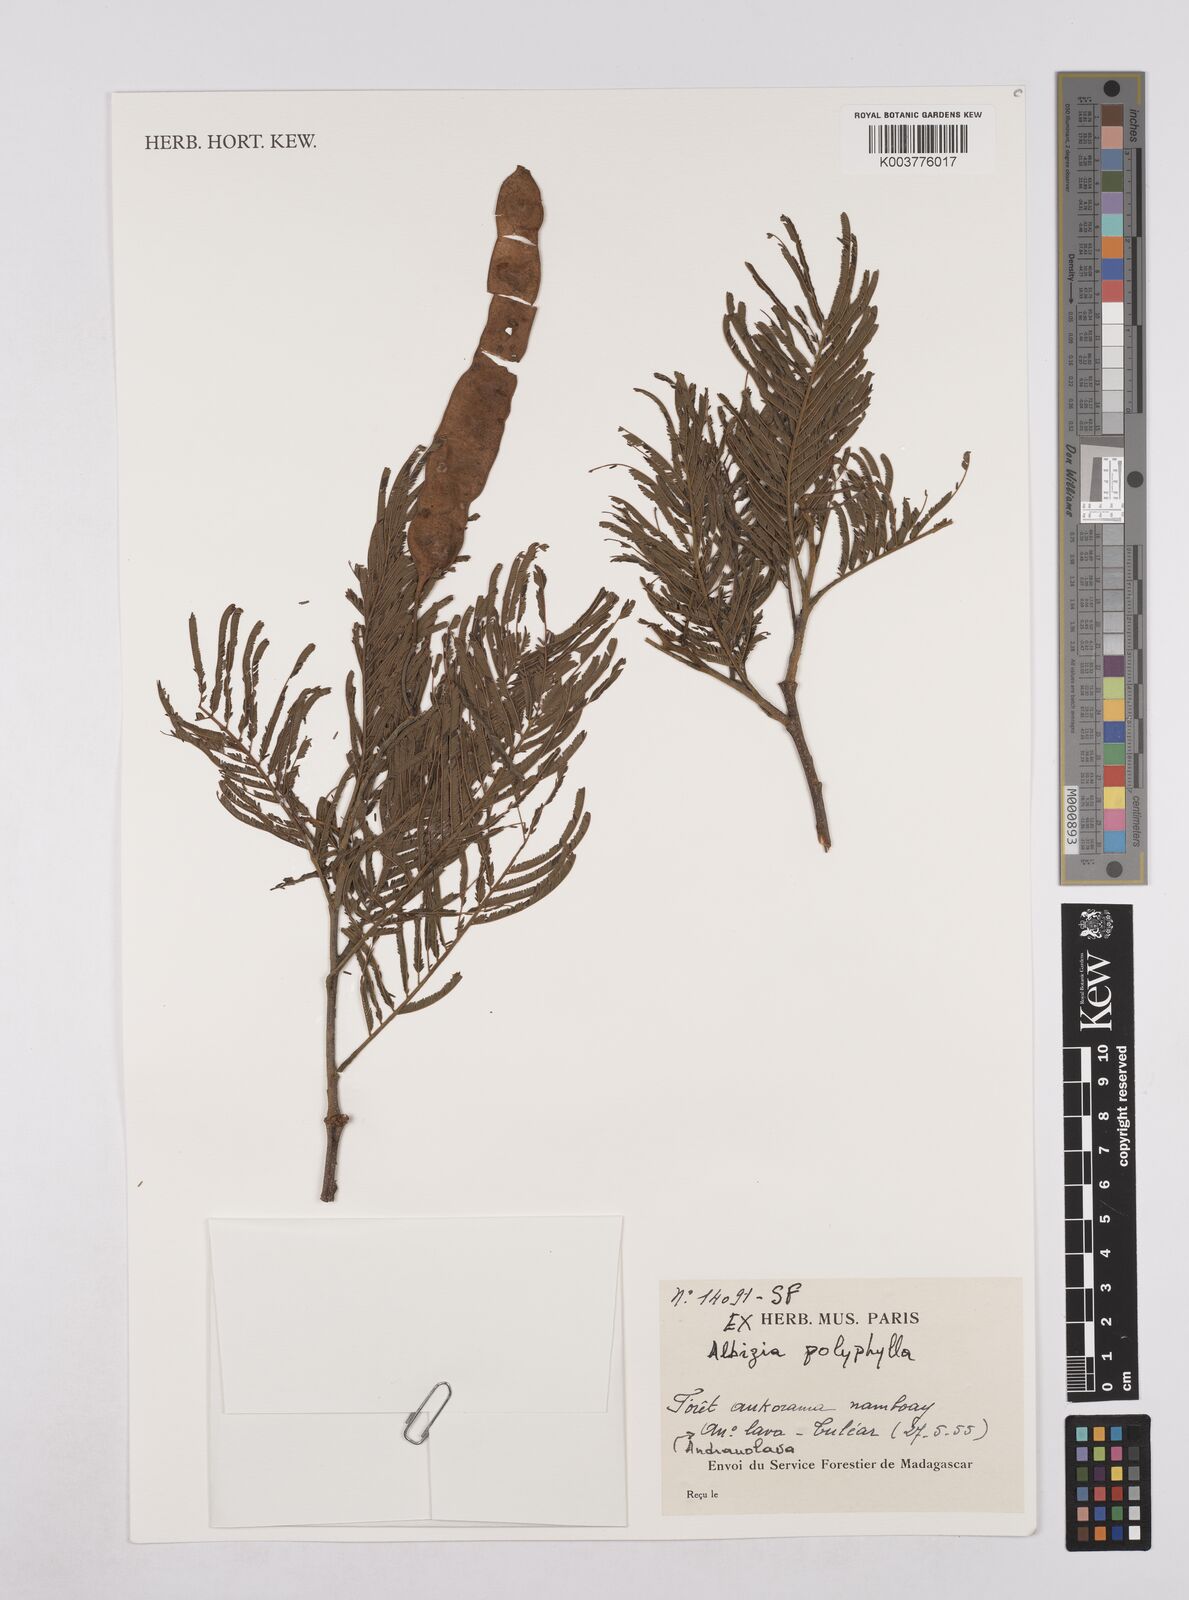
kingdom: Plantae
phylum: Tracheophyta
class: Magnoliopsida
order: Fabales
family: Fabaceae
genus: Albizia
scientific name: Albizia polyphylla
